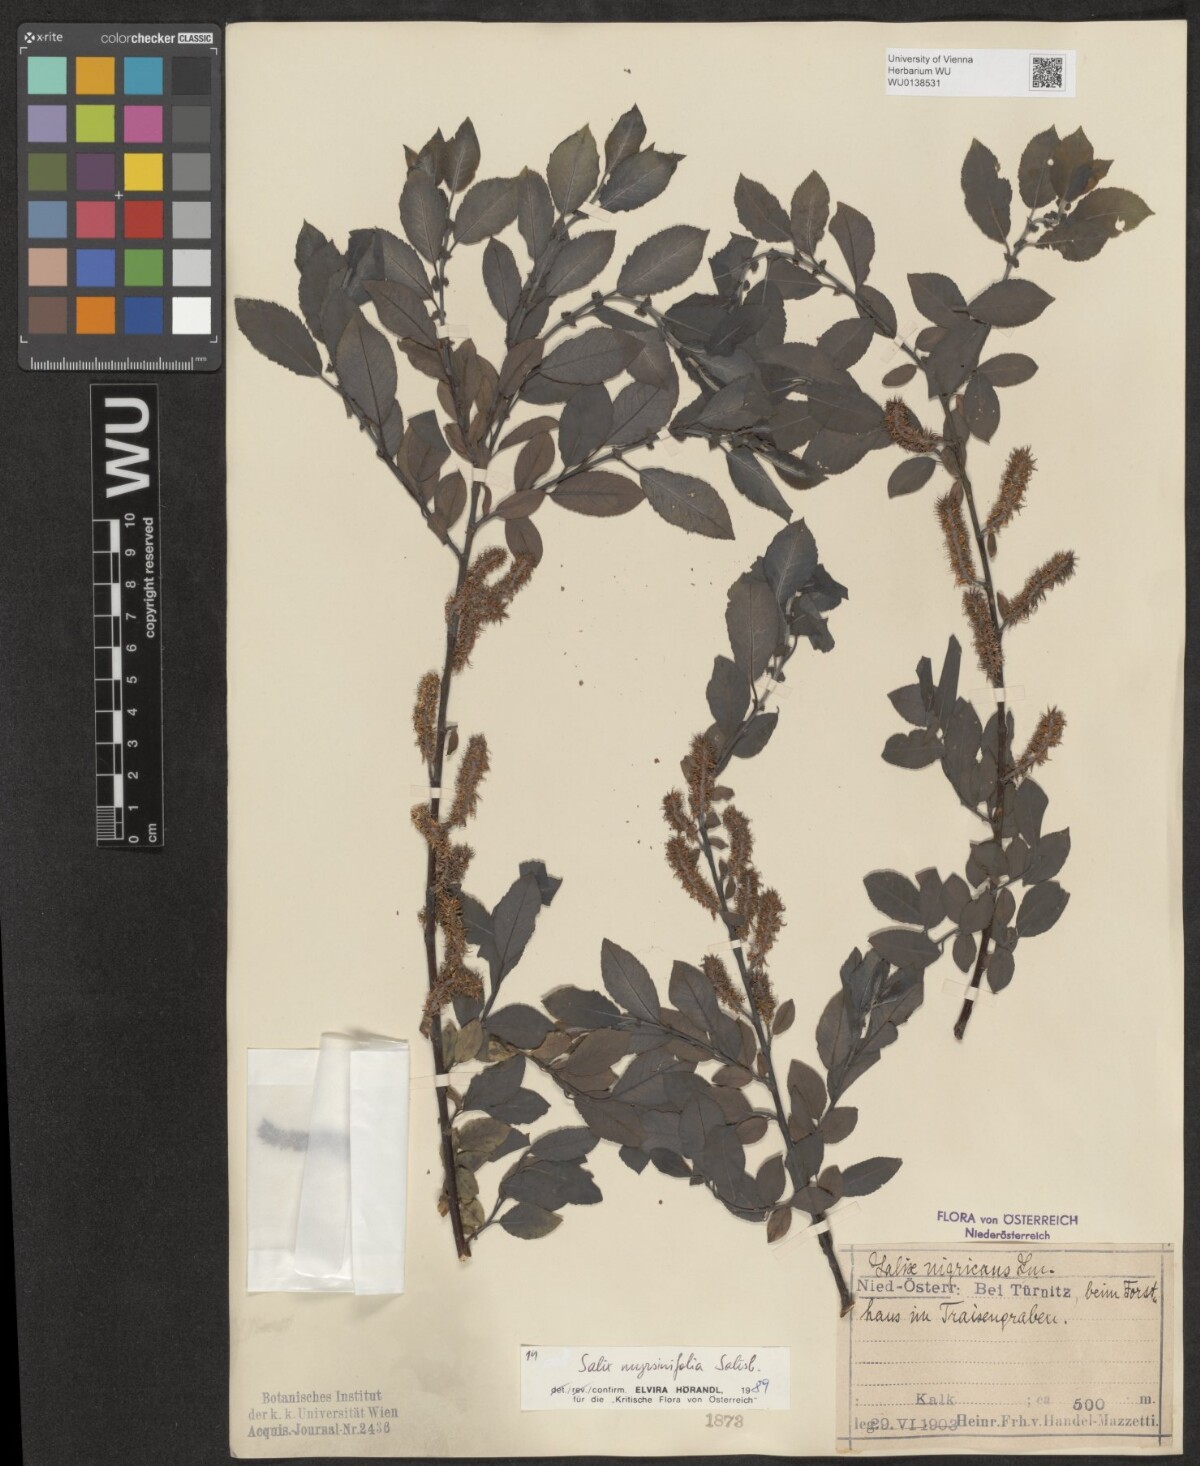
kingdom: Plantae
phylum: Tracheophyta
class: Magnoliopsida
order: Malpighiales
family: Salicaceae
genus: Salix
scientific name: Salix myrsinifolia
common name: Dark-leaved willow
